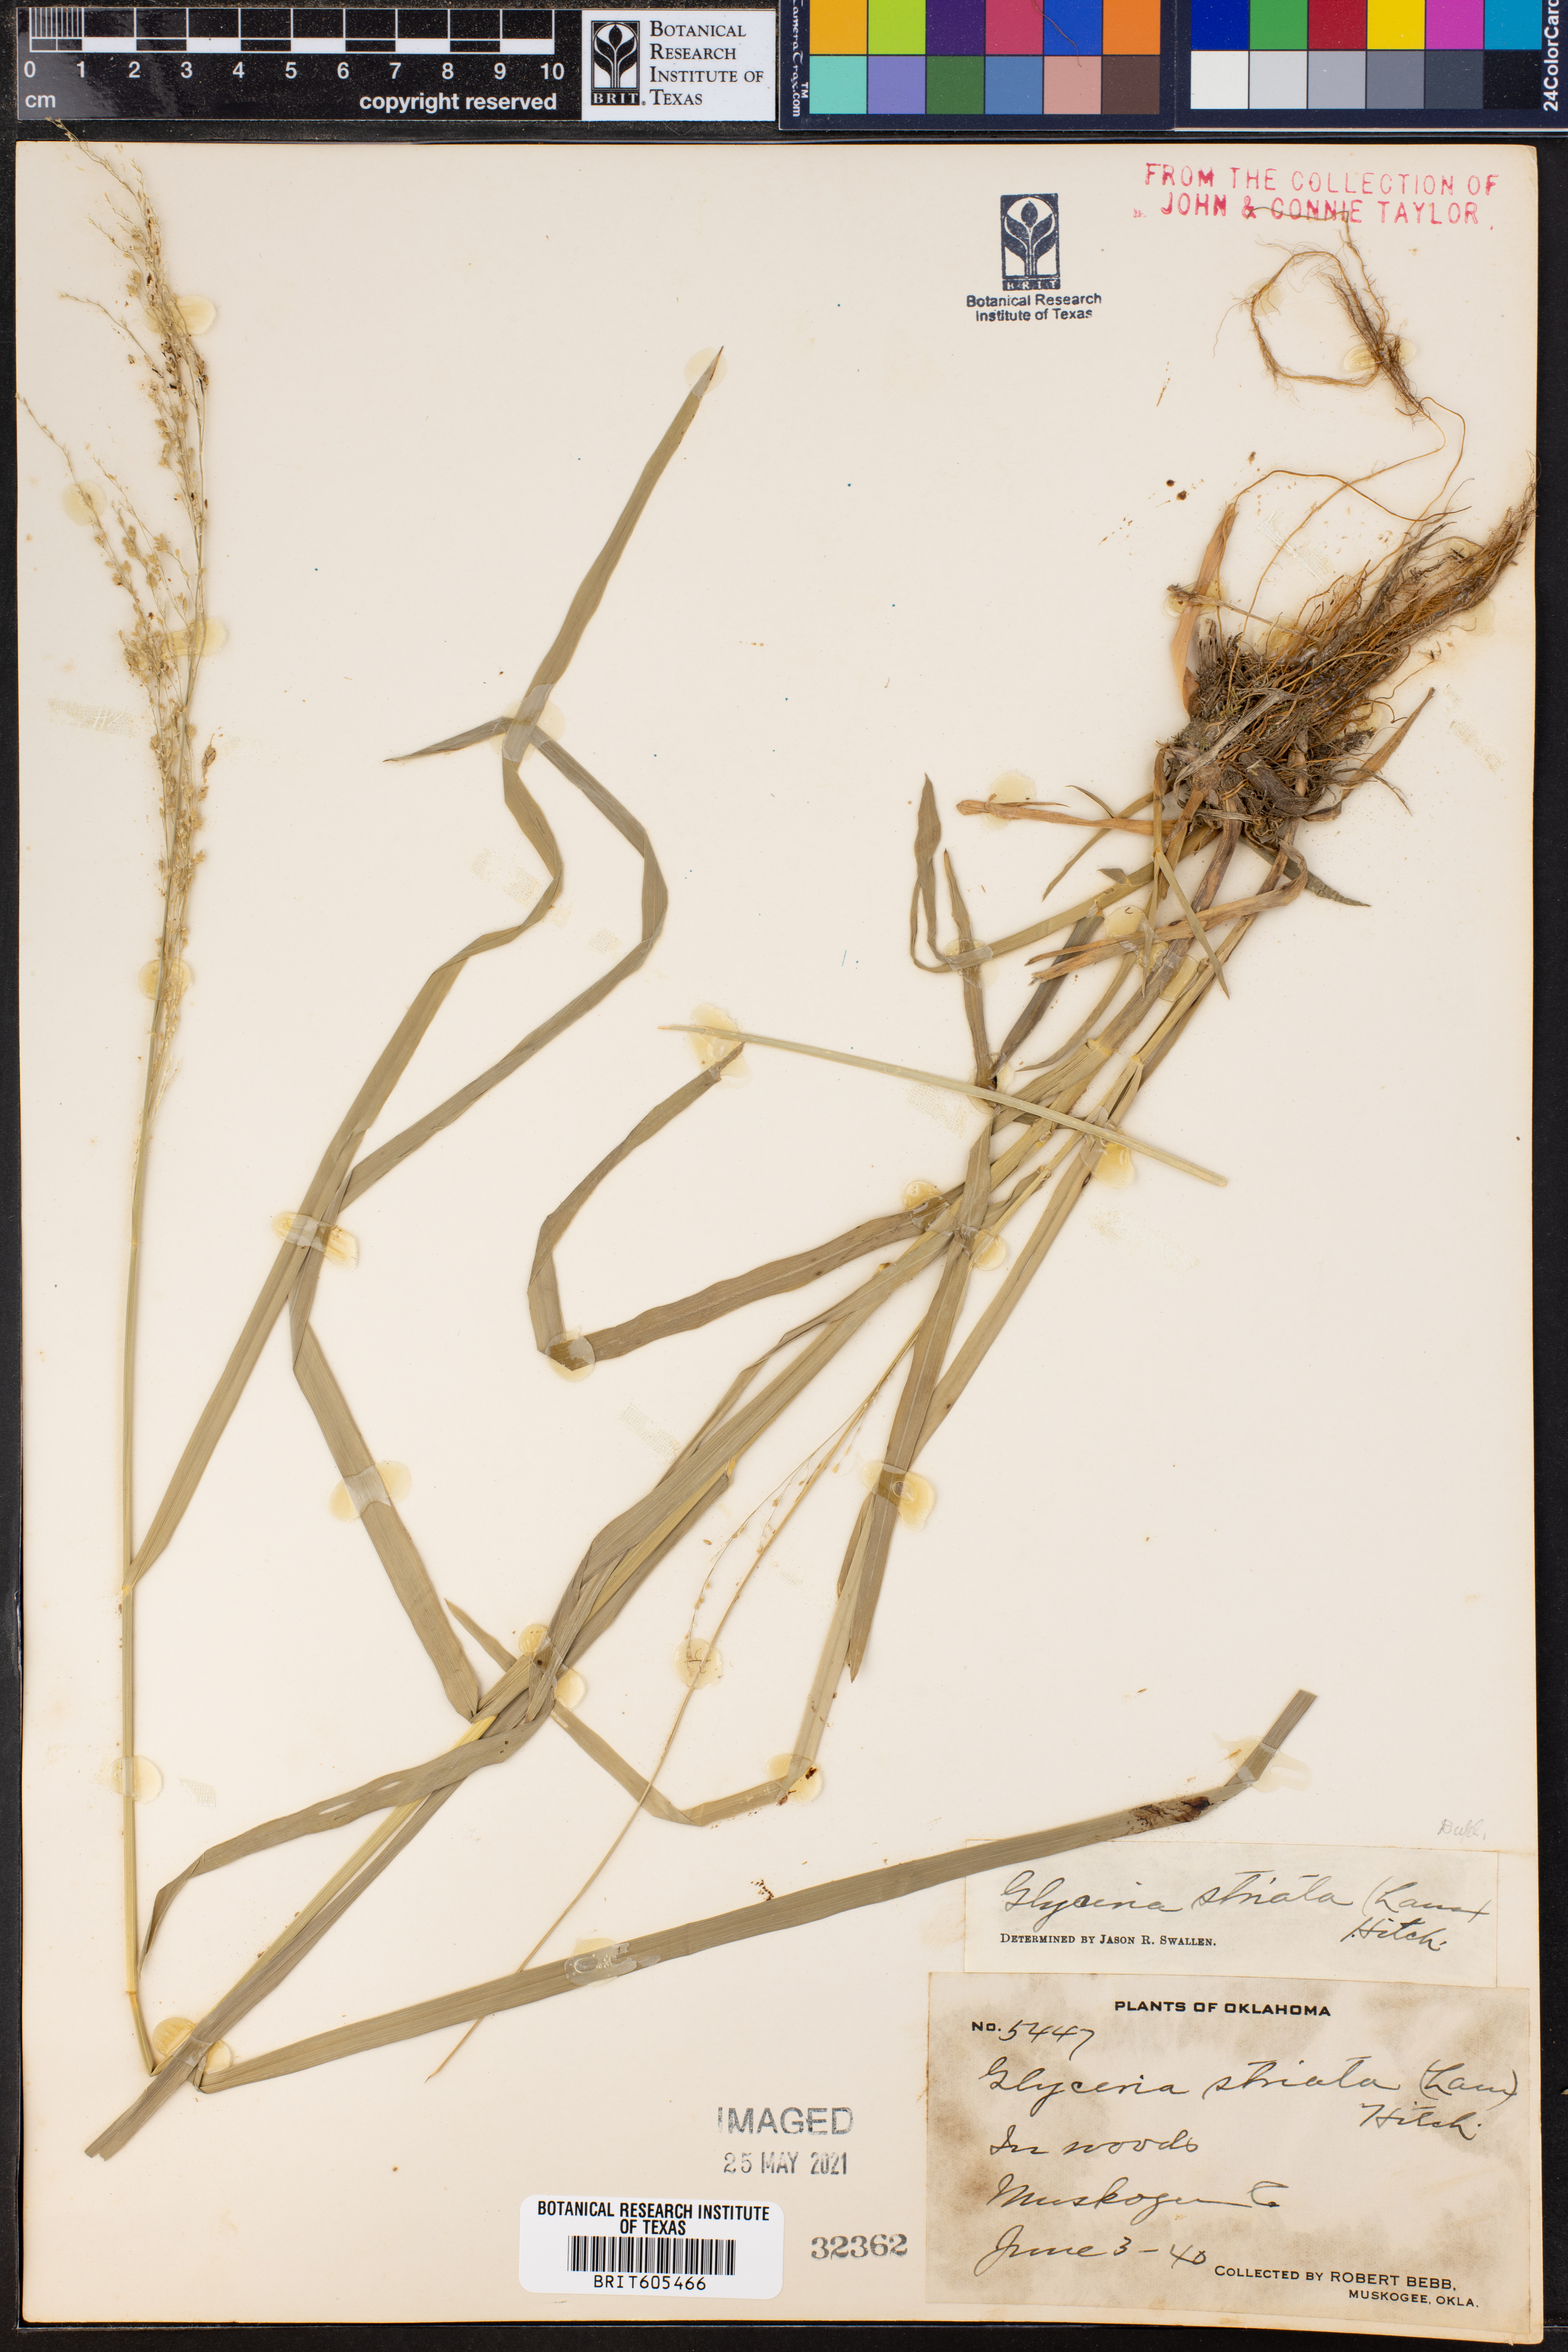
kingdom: Plantae
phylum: Tracheophyta
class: Liliopsida
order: Poales
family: Poaceae
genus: Glyceria
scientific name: Glyceria striata
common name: Fowl manna grass
